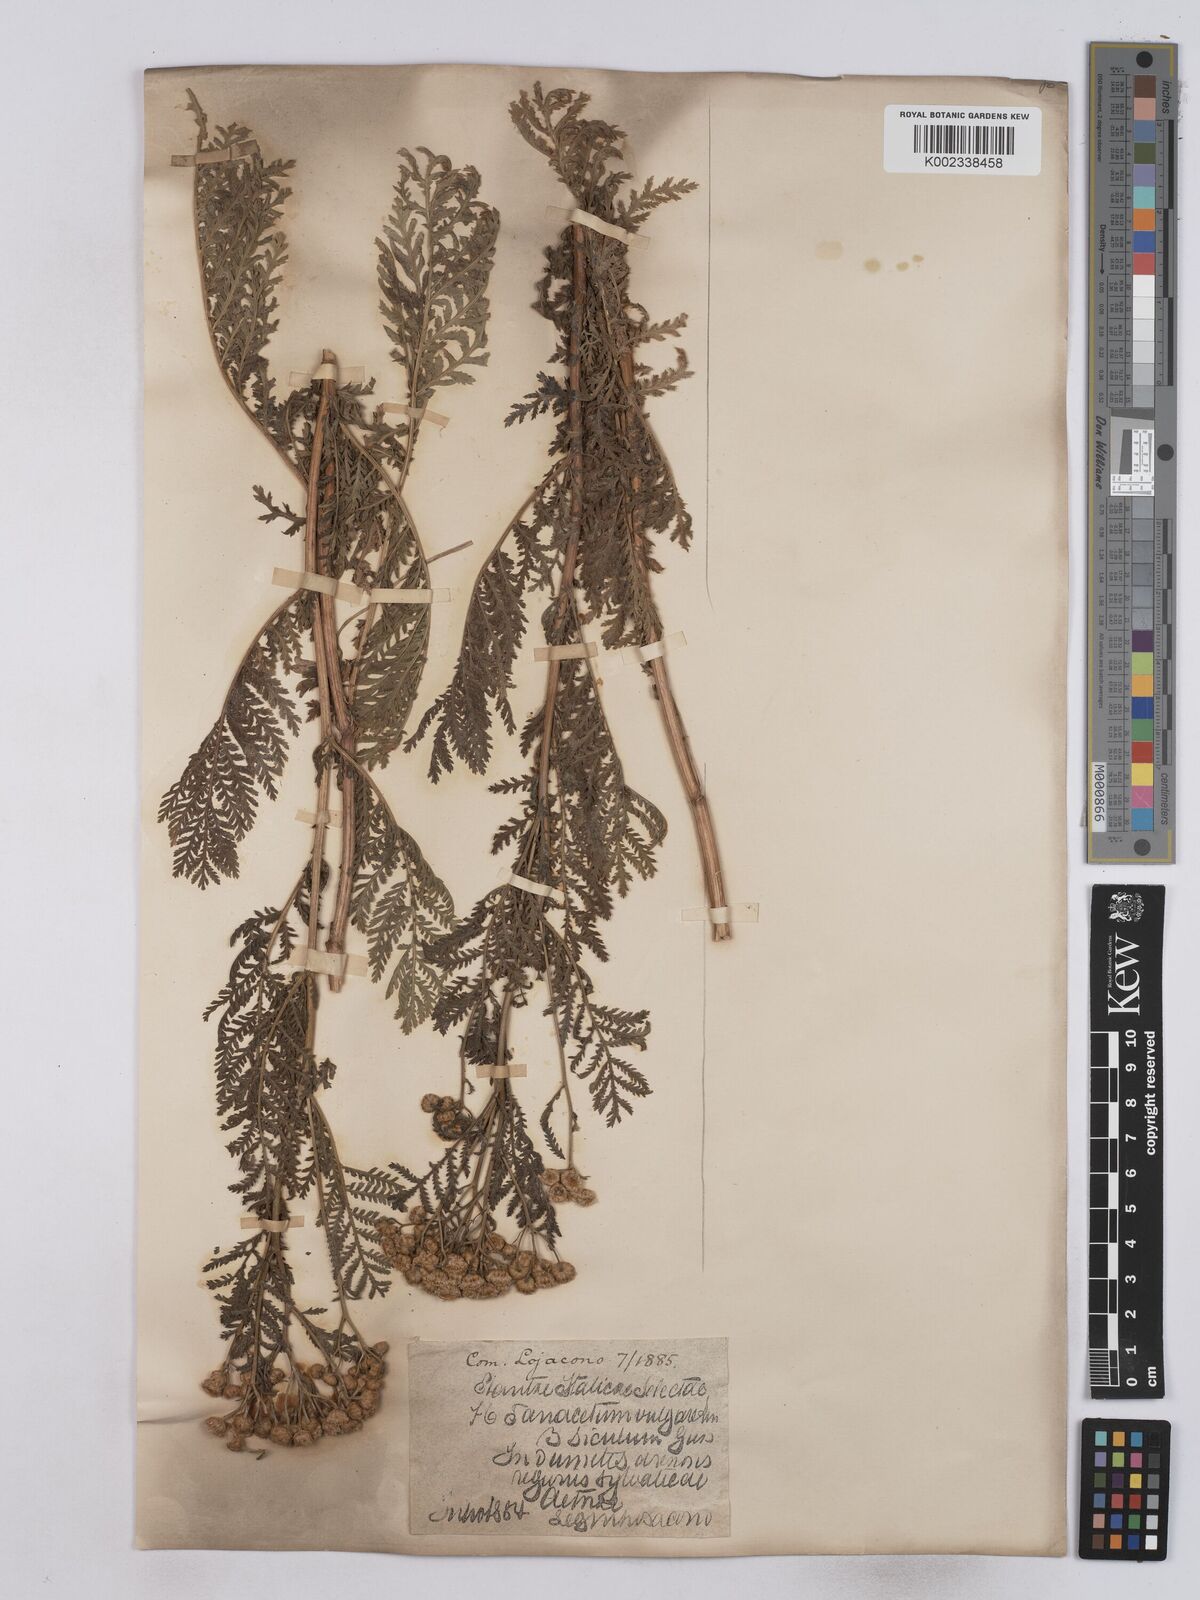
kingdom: Plantae
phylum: Tracheophyta
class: Magnoliopsida
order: Asterales
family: Asteraceae
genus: Tanacetum
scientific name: Tanacetum vulgare
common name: Common tansy
